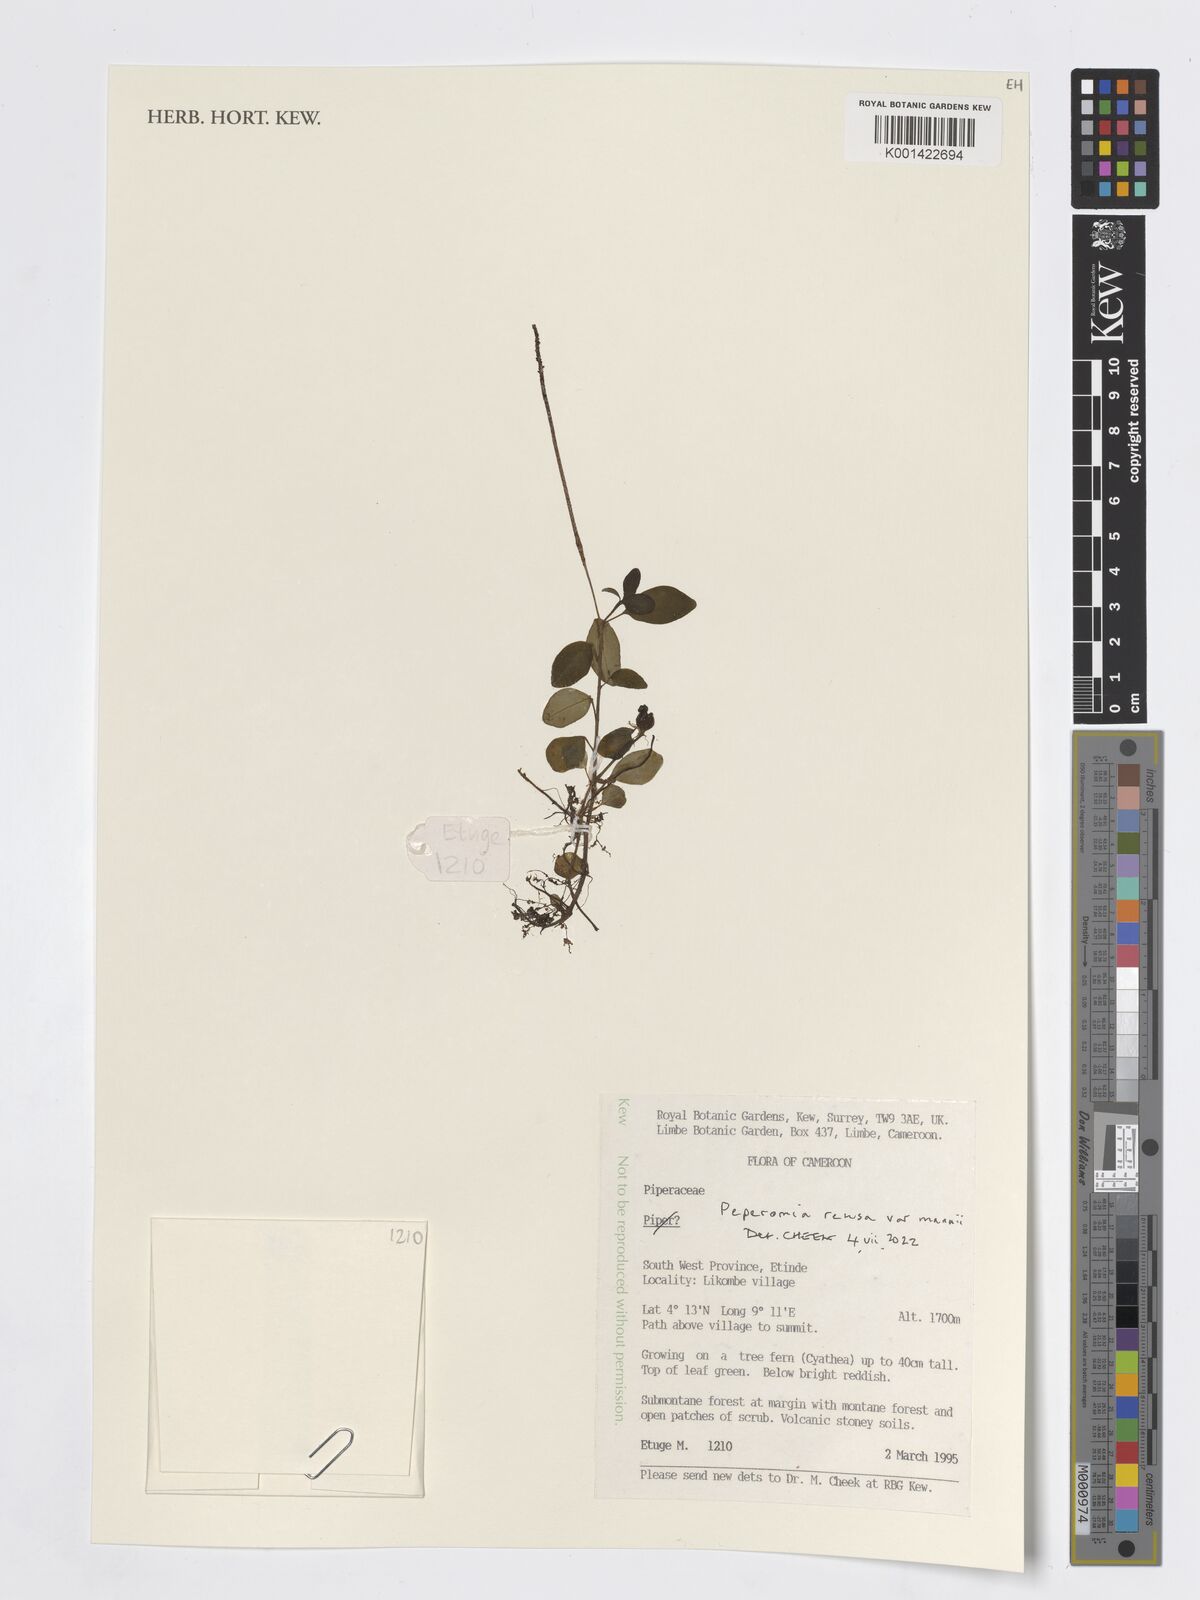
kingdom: Plantae
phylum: Tracheophyta
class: Magnoliopsida
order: Piperales
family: Piperaceae
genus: Peperomia
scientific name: Peperomia
